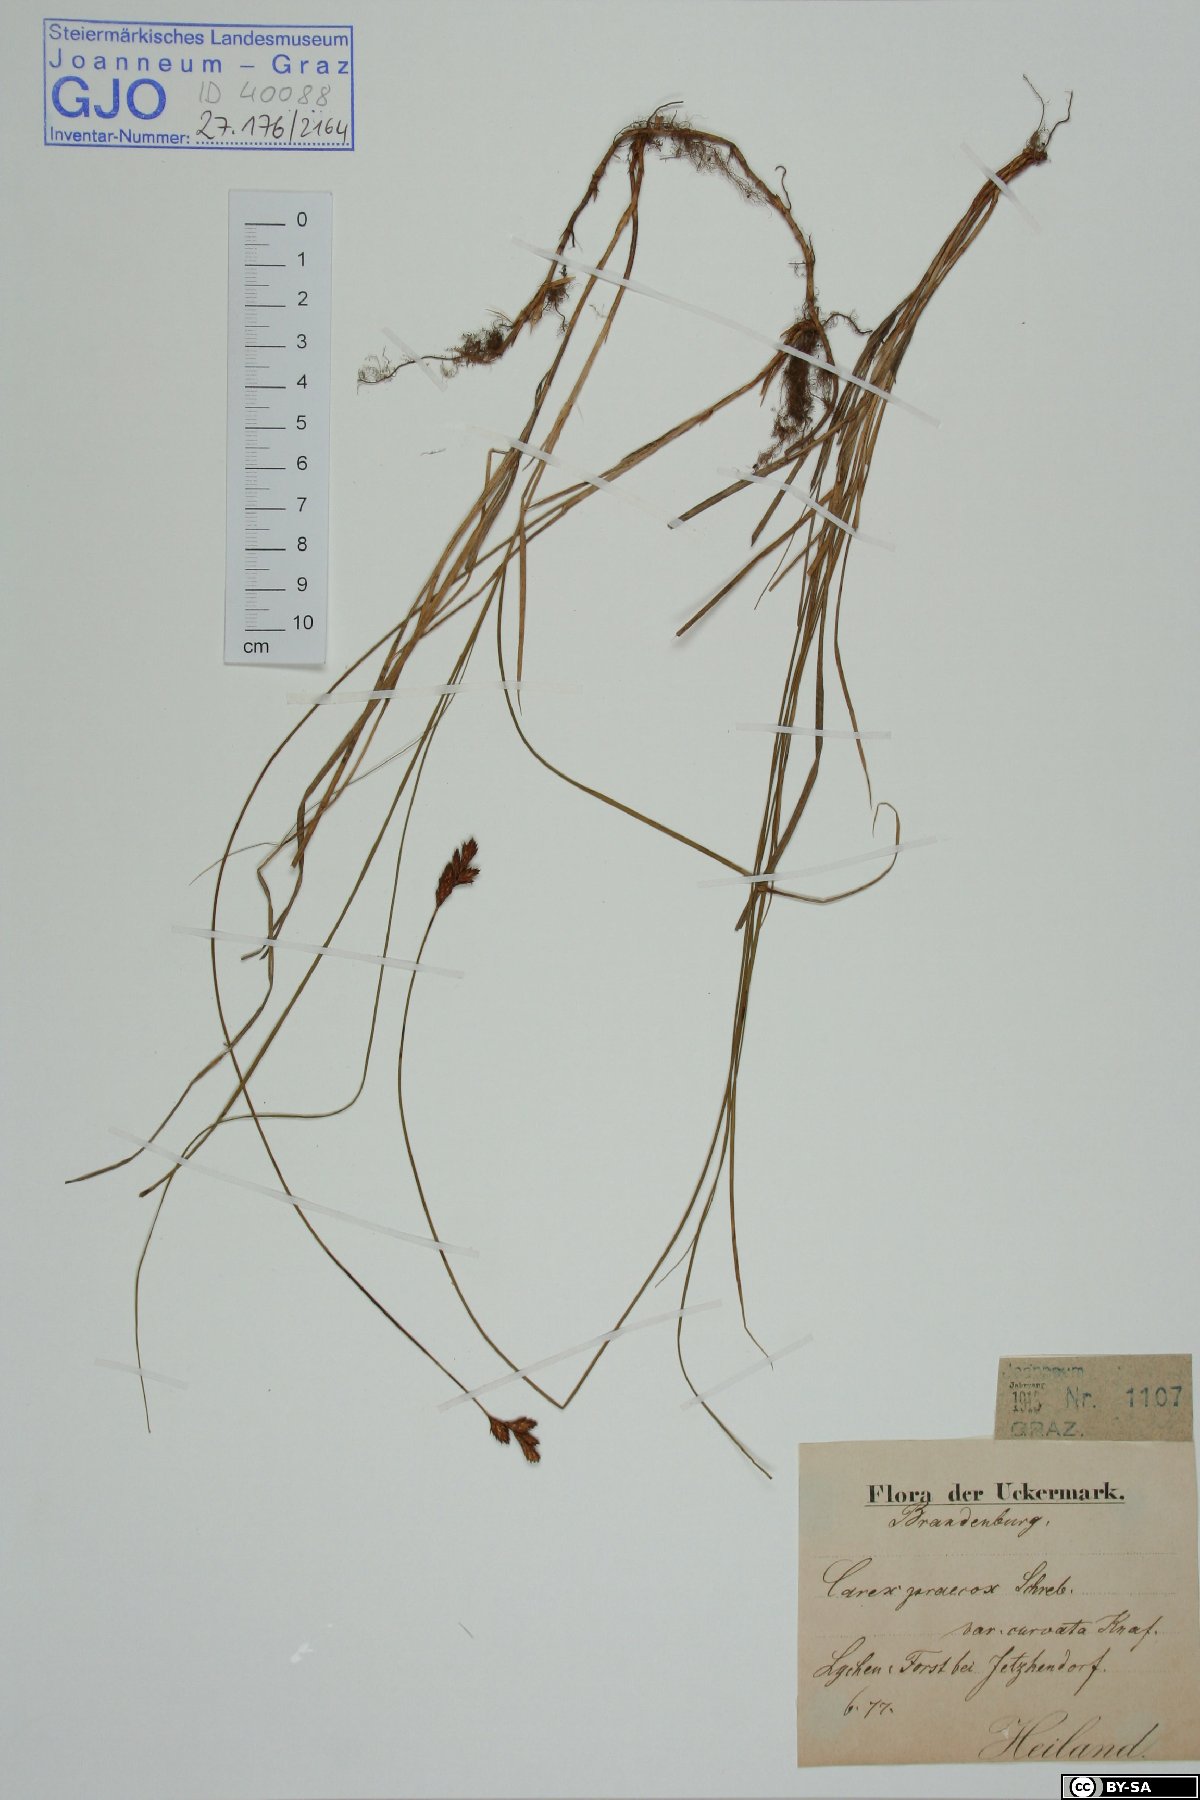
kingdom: Plantae
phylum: Tracheophyta
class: Liliopsida
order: Poales
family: Cyperaceae
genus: Carex
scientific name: Carex curvata
